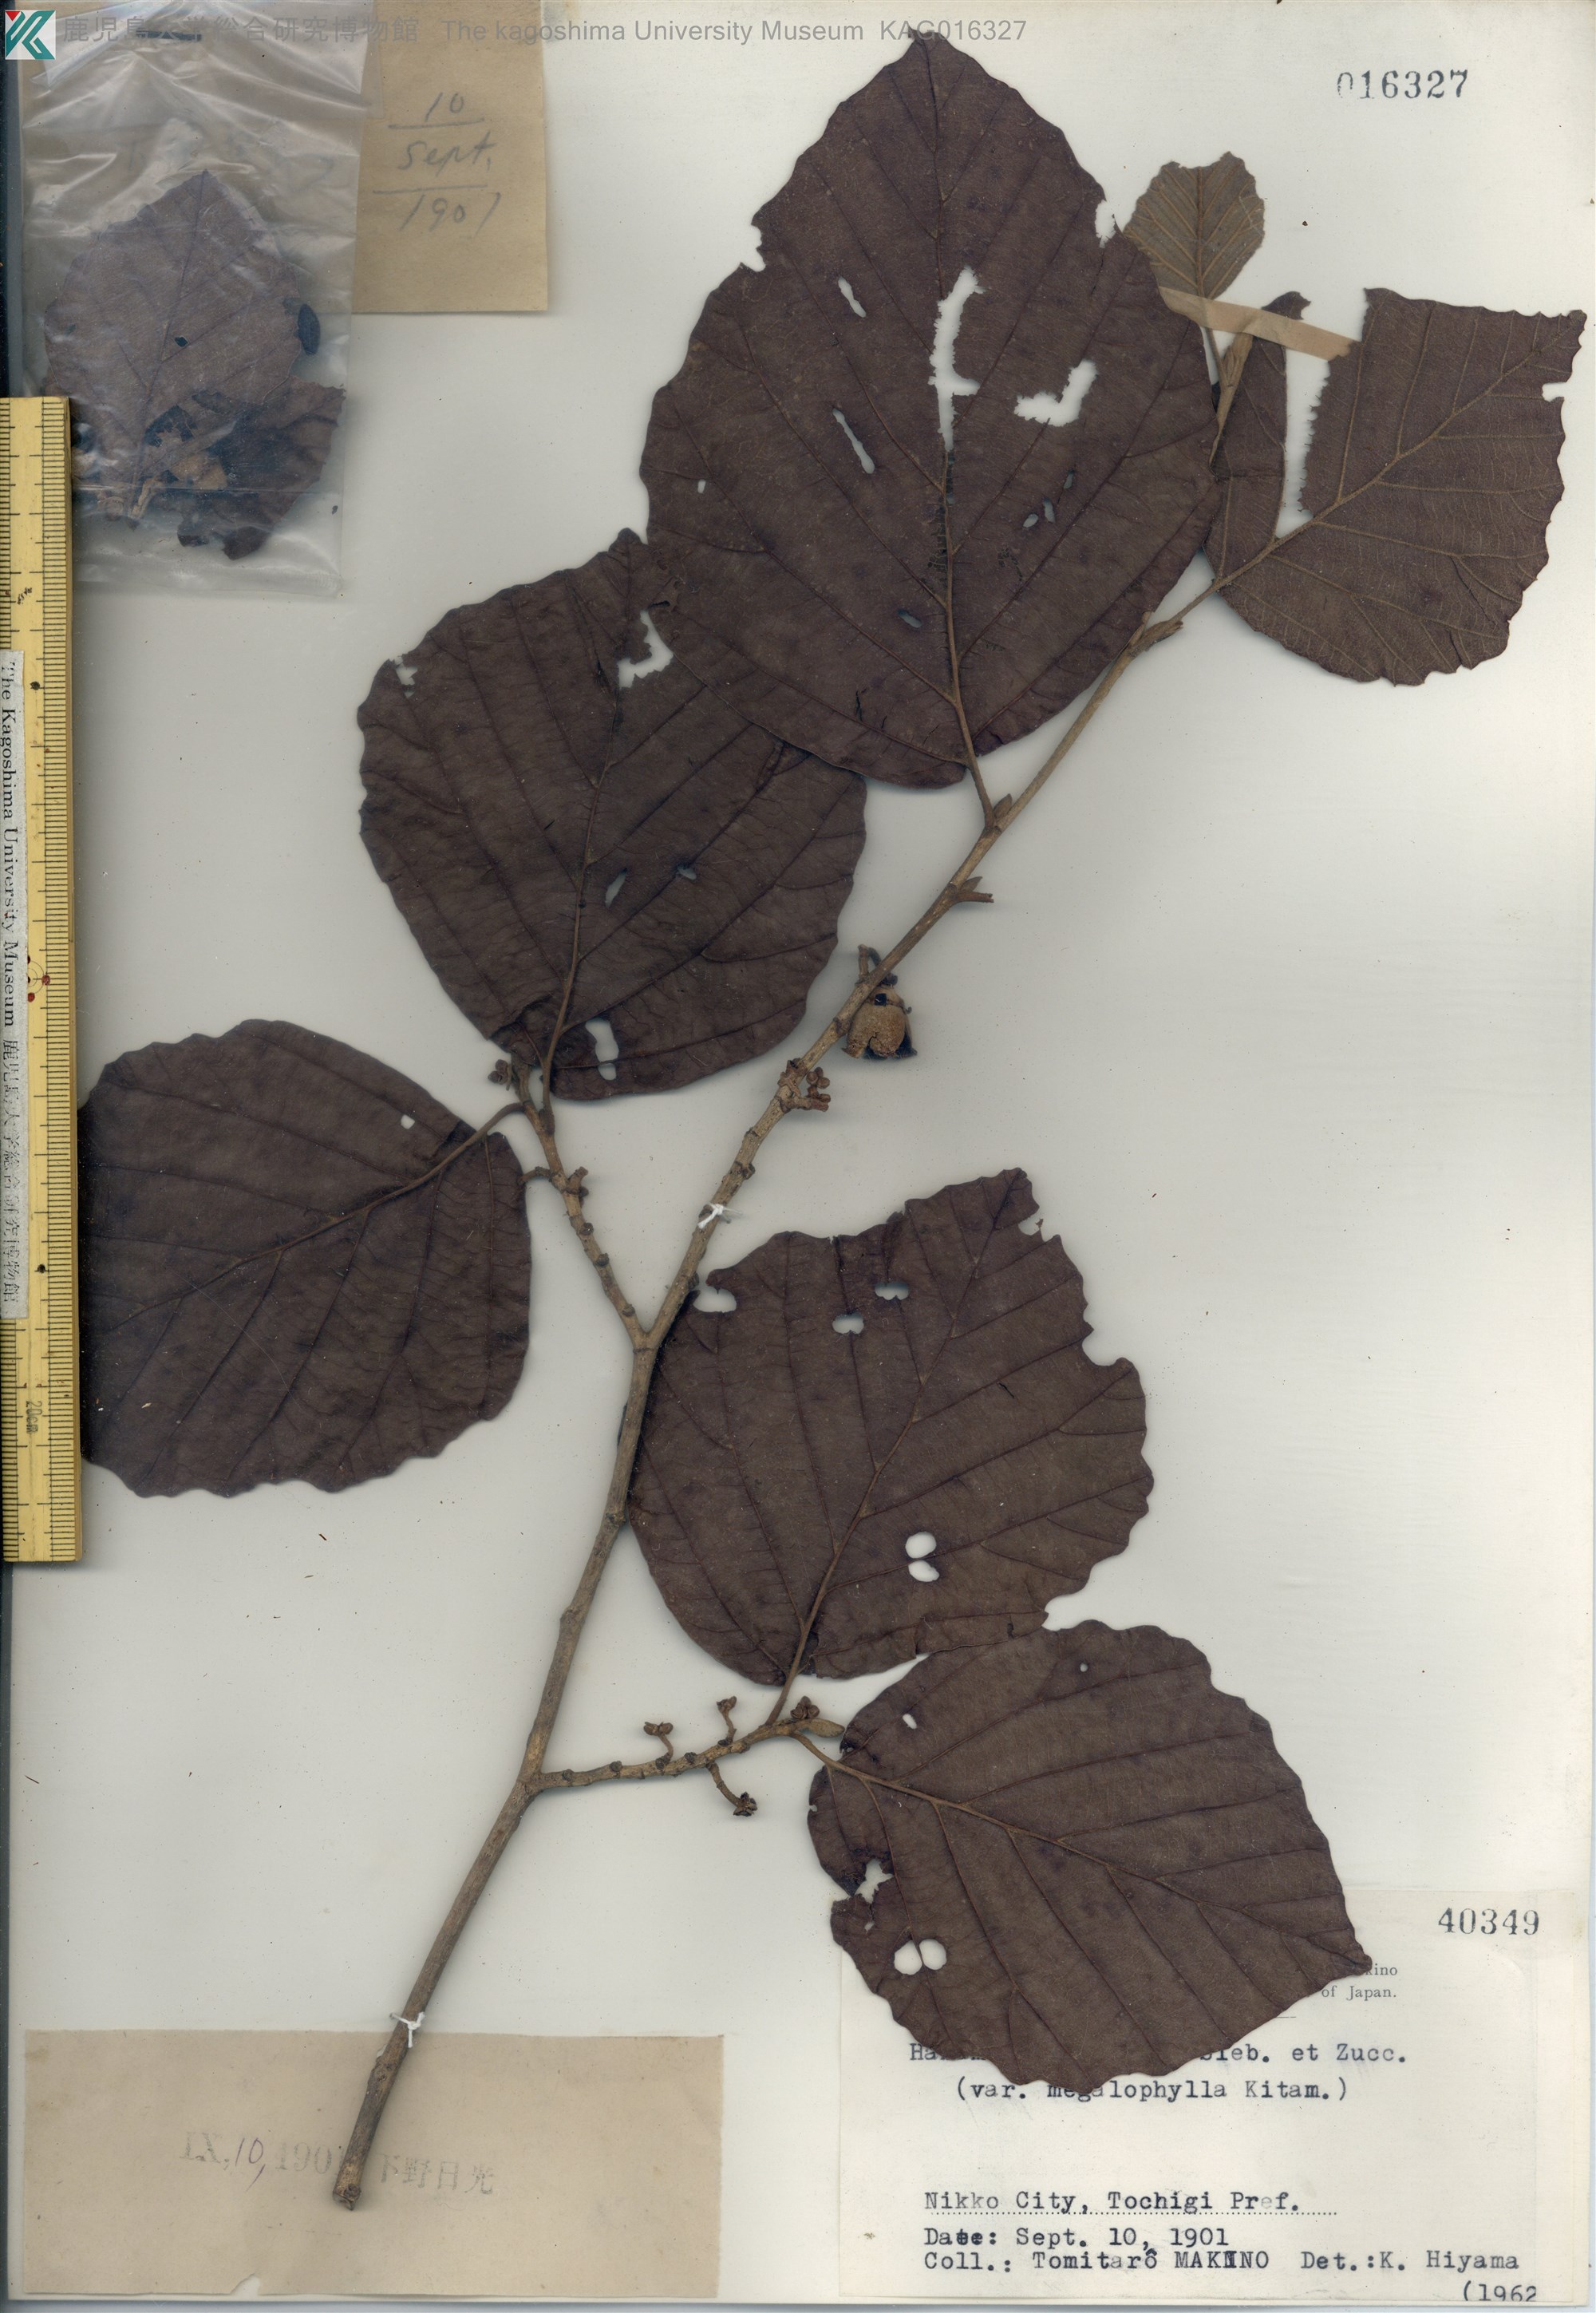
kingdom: Plantae
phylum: Tracheophyta
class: Magnoliopsida
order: Saxifragales
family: Hamamelidaceae
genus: Hamamelis
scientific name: Hamamelis japonica
